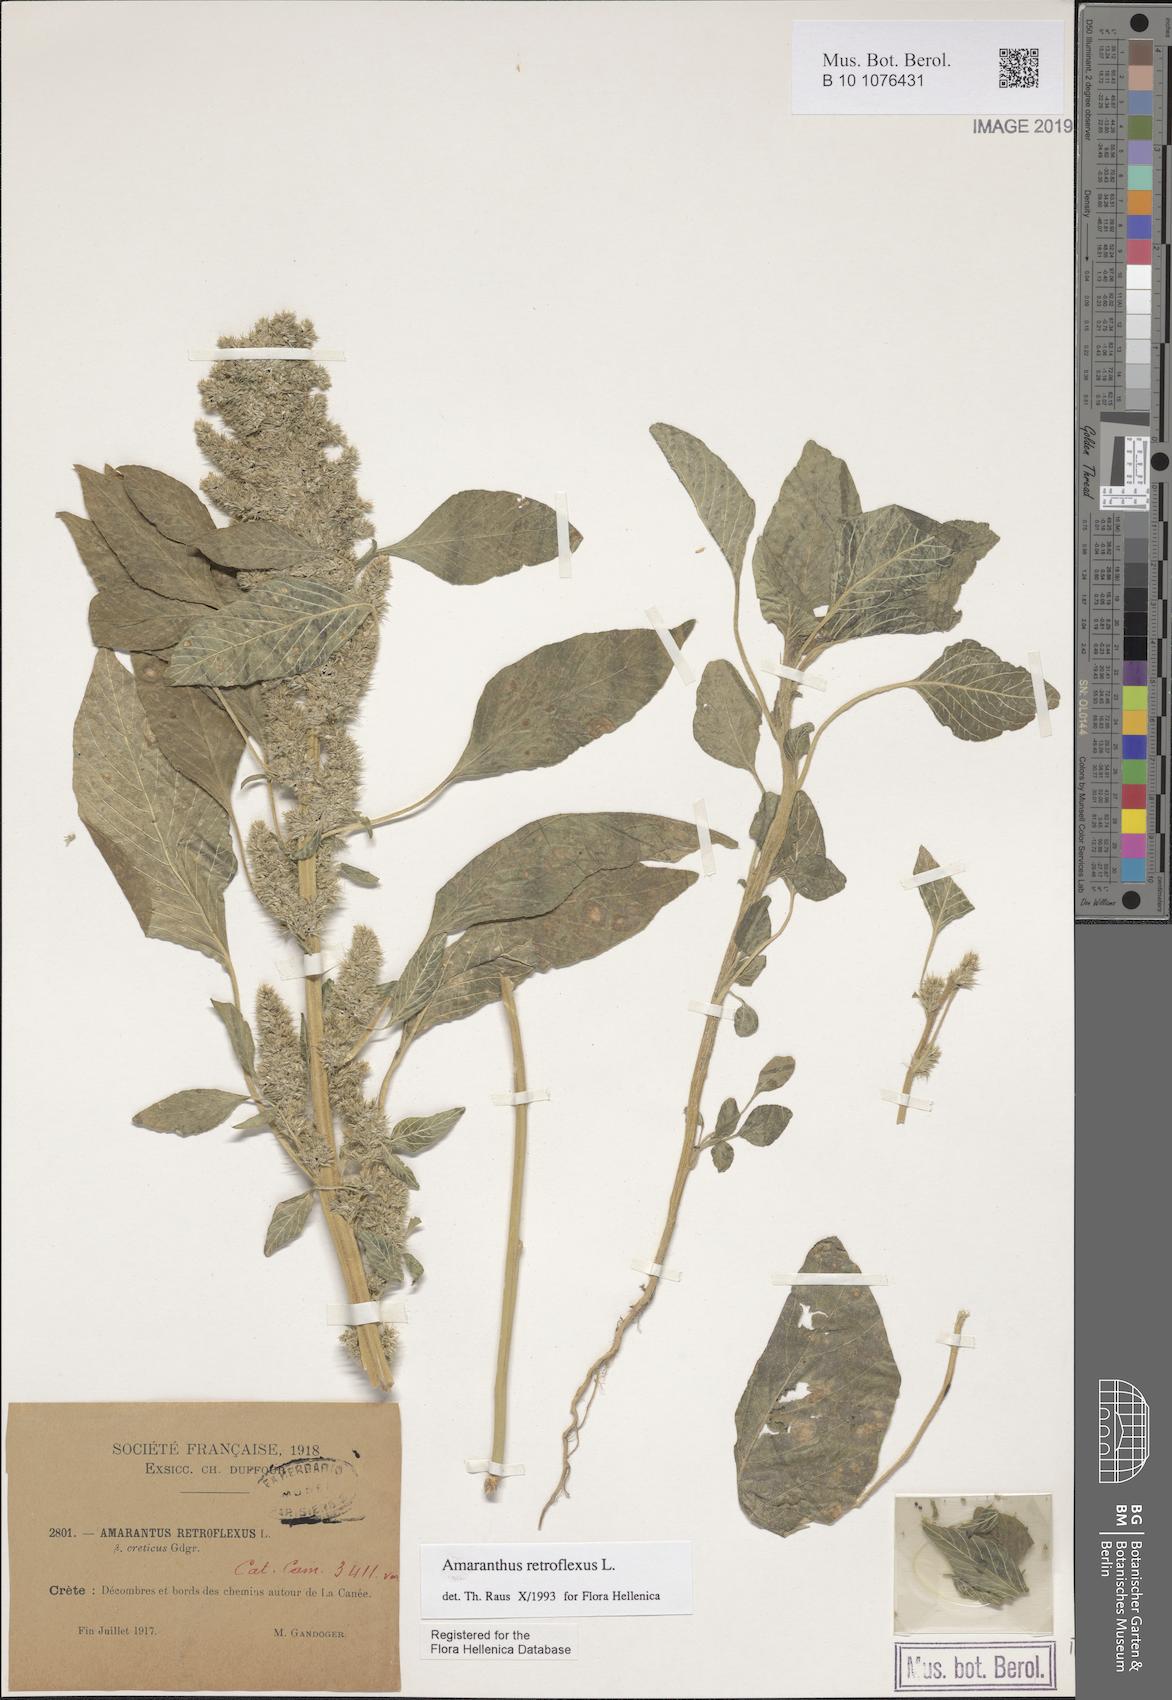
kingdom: Plantae
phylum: Tracheophyta
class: Magnoliopsida
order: Caryophyllales
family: Amaranthaceae
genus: Amaranthus
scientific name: Amaranthus retroflexus
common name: Redroot amaranth
